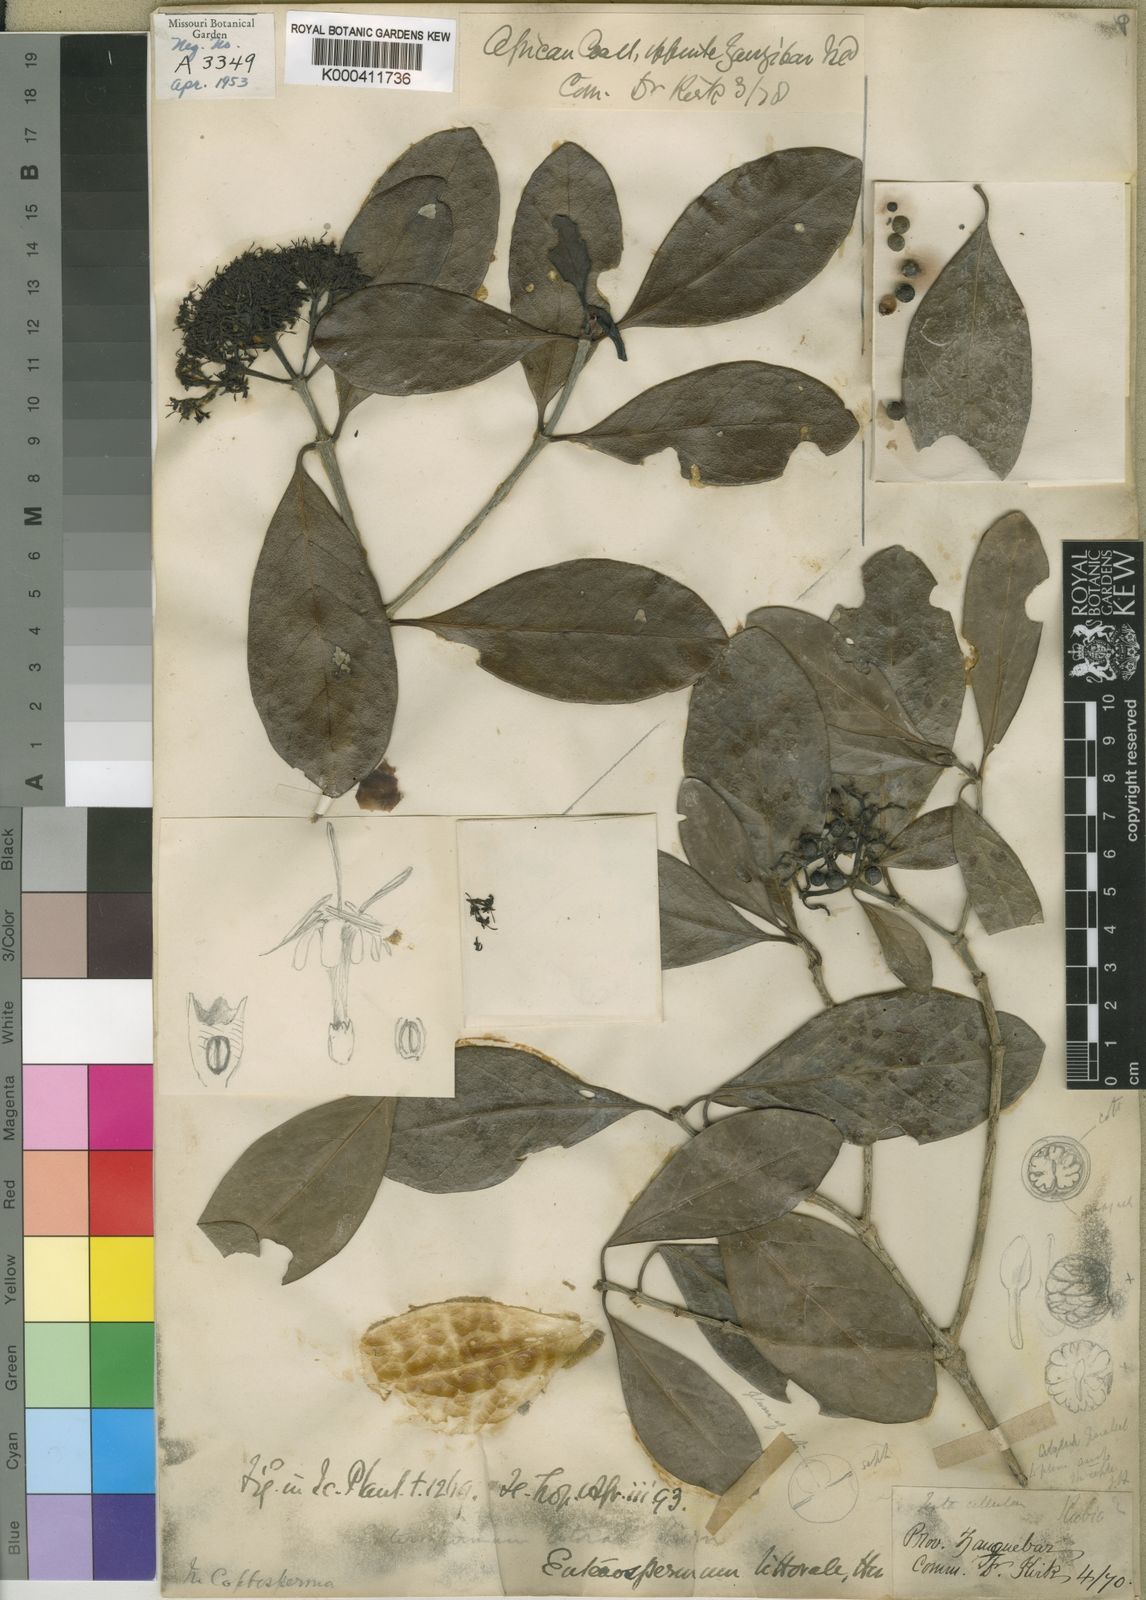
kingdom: Plantae
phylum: Tracheophyta
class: Magnoliopsida
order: Gentianales
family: Rubiaceae
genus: Coptosperma
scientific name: Coptosperma littorale
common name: Dune butterspoon
